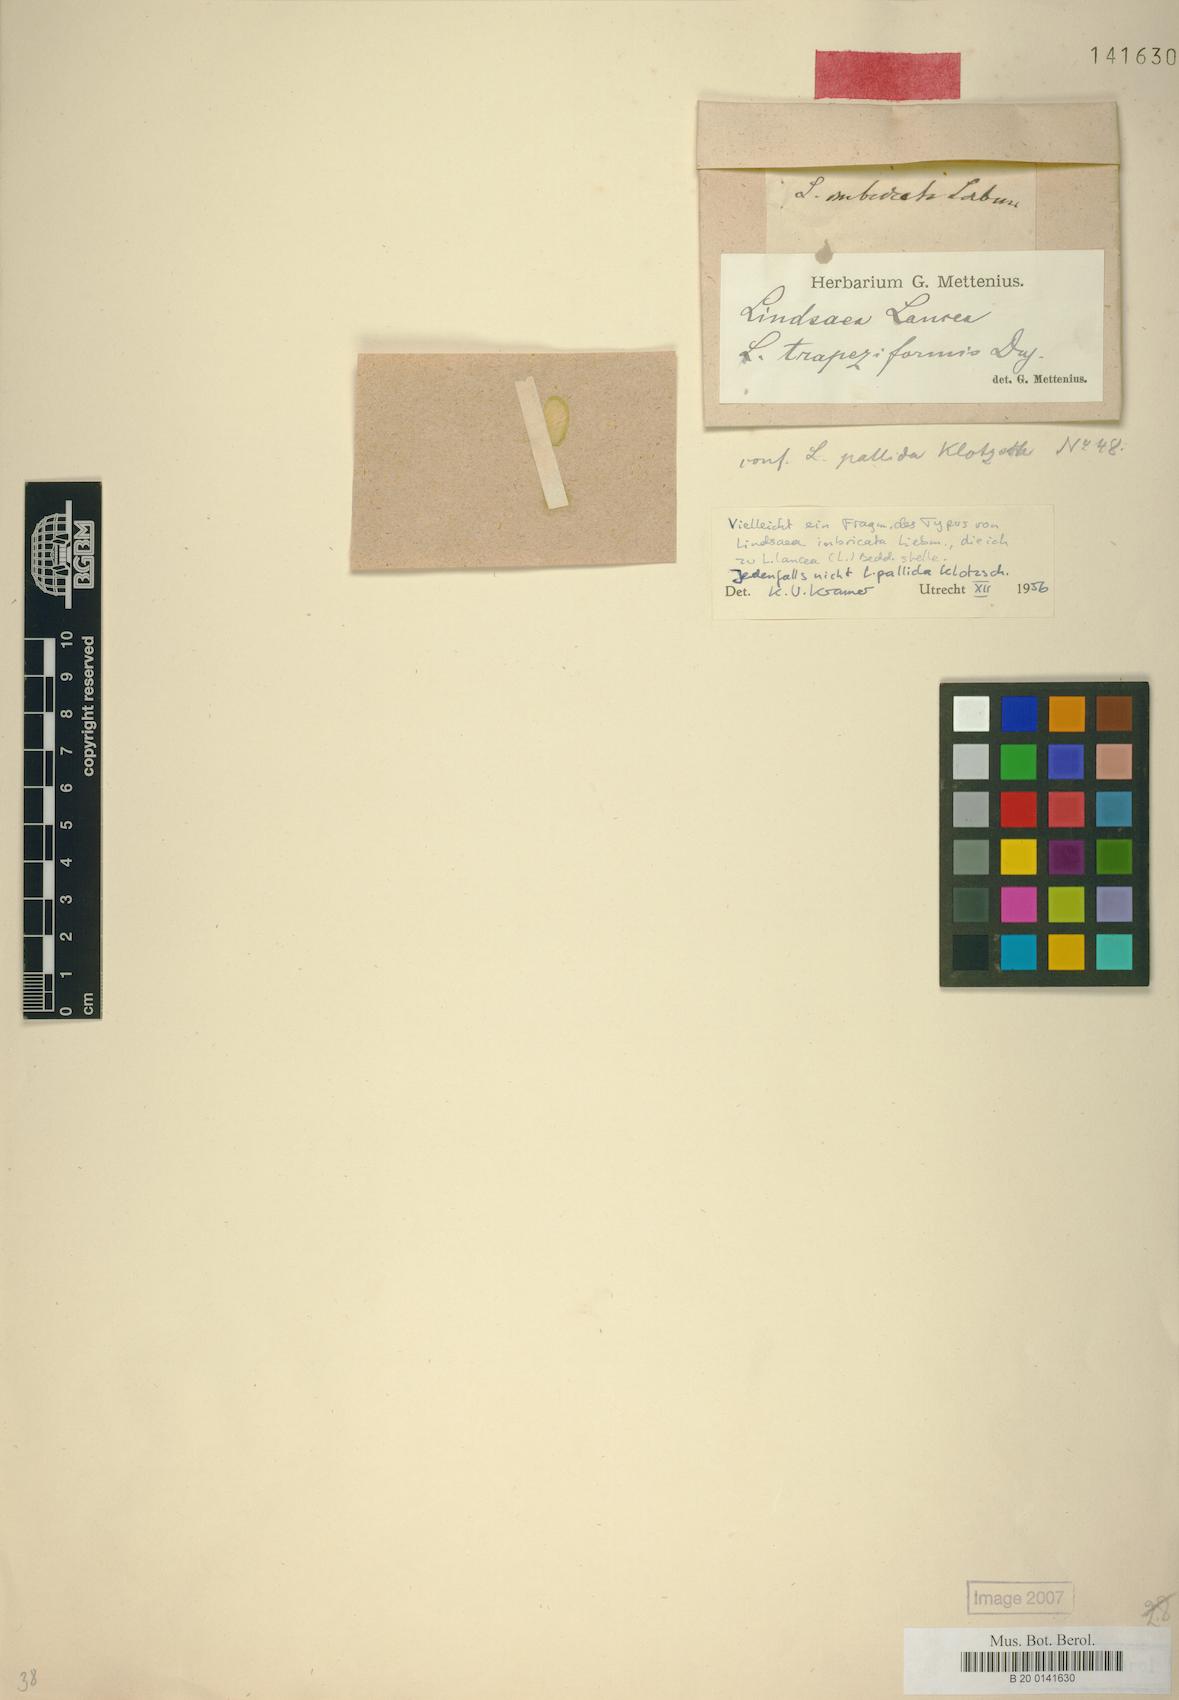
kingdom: Plantae
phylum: Tracheophyta
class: Polypodiopsida
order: Polypodiales
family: Lindsaeaceae
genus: Lindsaea
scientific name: Lindsaea lancea
